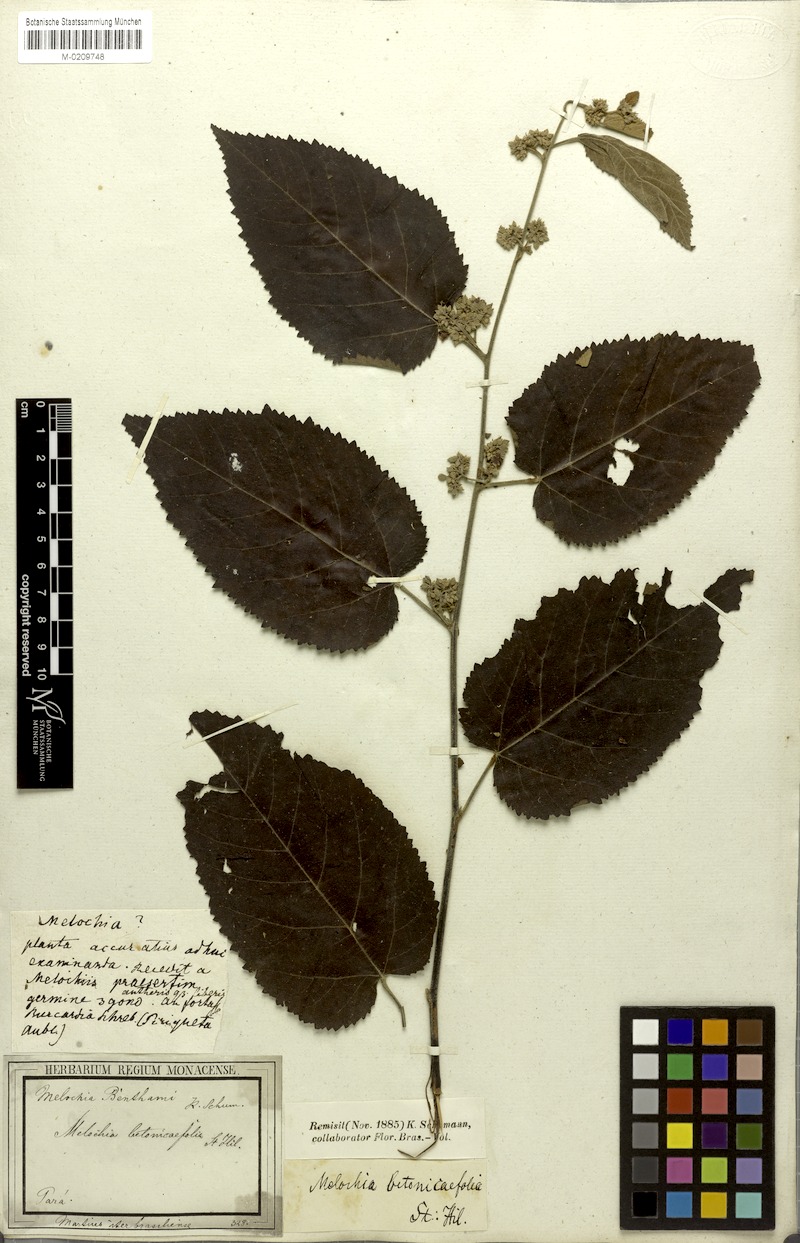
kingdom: Plantae
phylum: Tracheophyta
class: Magnoliopsida
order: Malvales
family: Malvaceae
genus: Melochia
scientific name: Melochia ulmifolia
